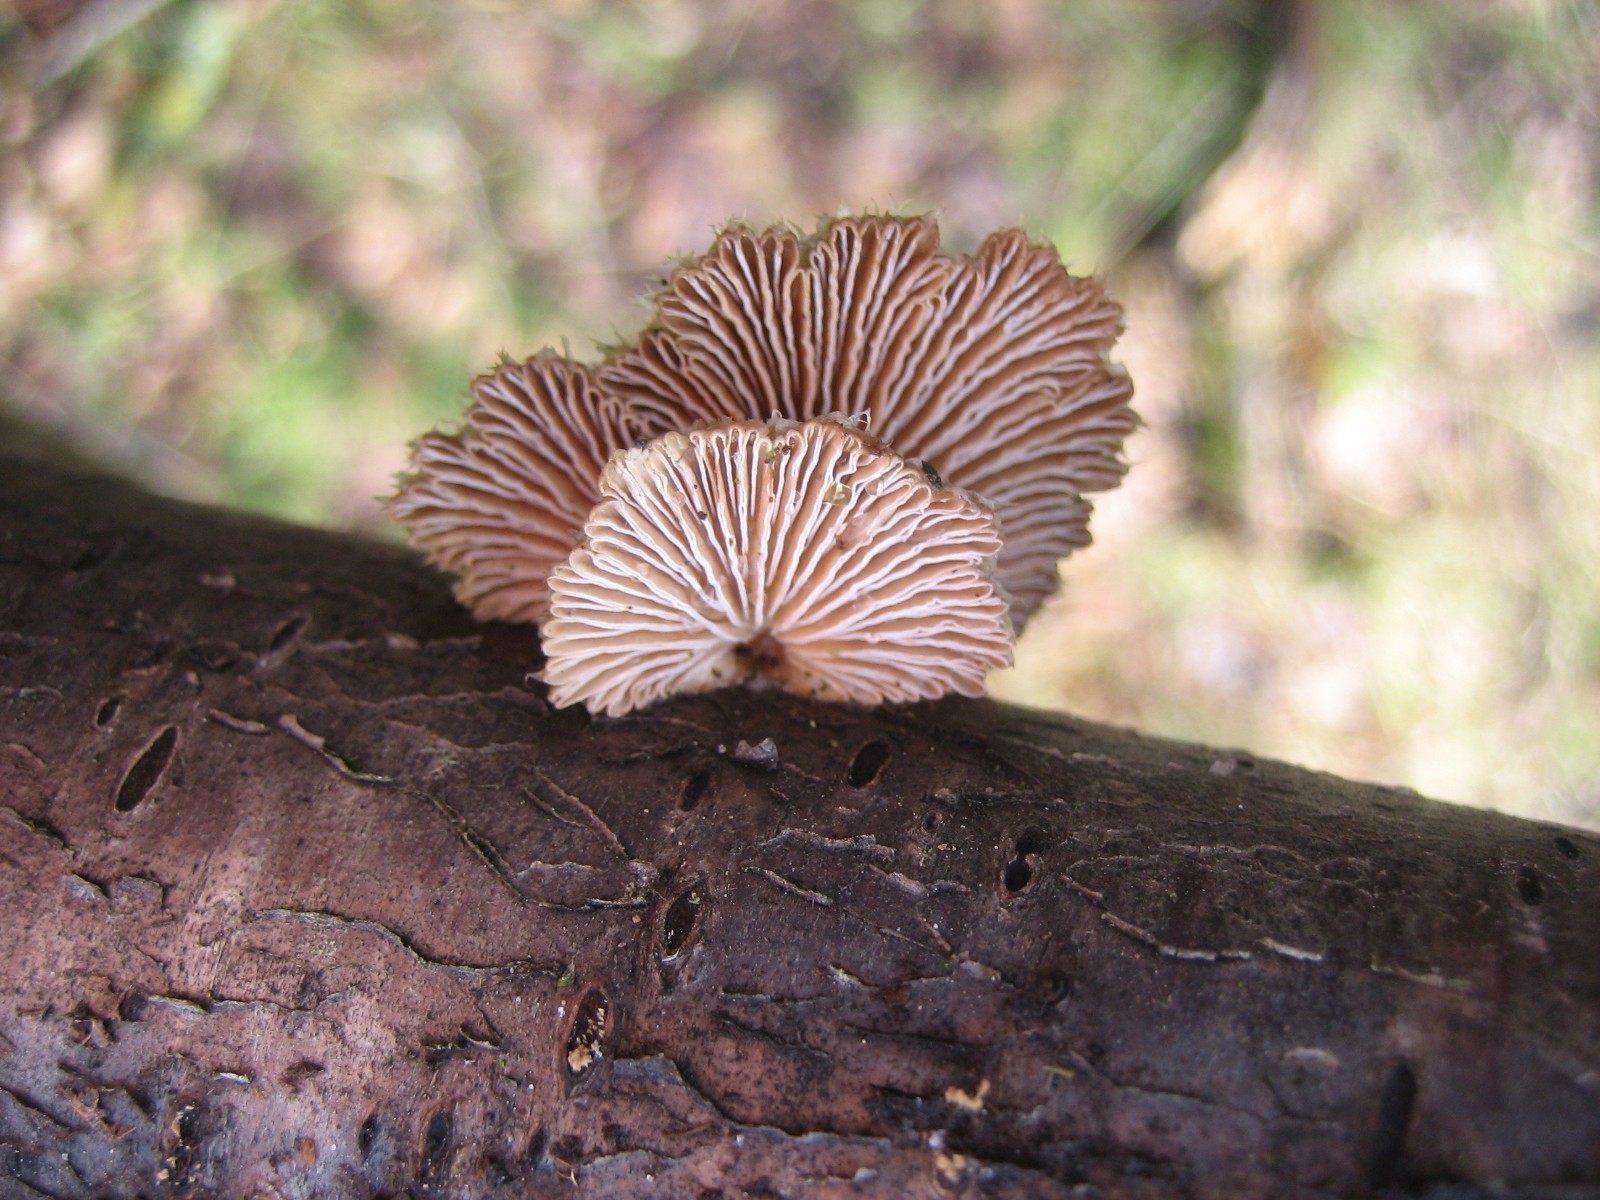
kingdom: Fungi
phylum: Basidiomycota
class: Agaricomycetes
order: Agaricales
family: Schizophyllaceae
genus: Schizophyllum
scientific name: Schizophyllum commune
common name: kløvblad
